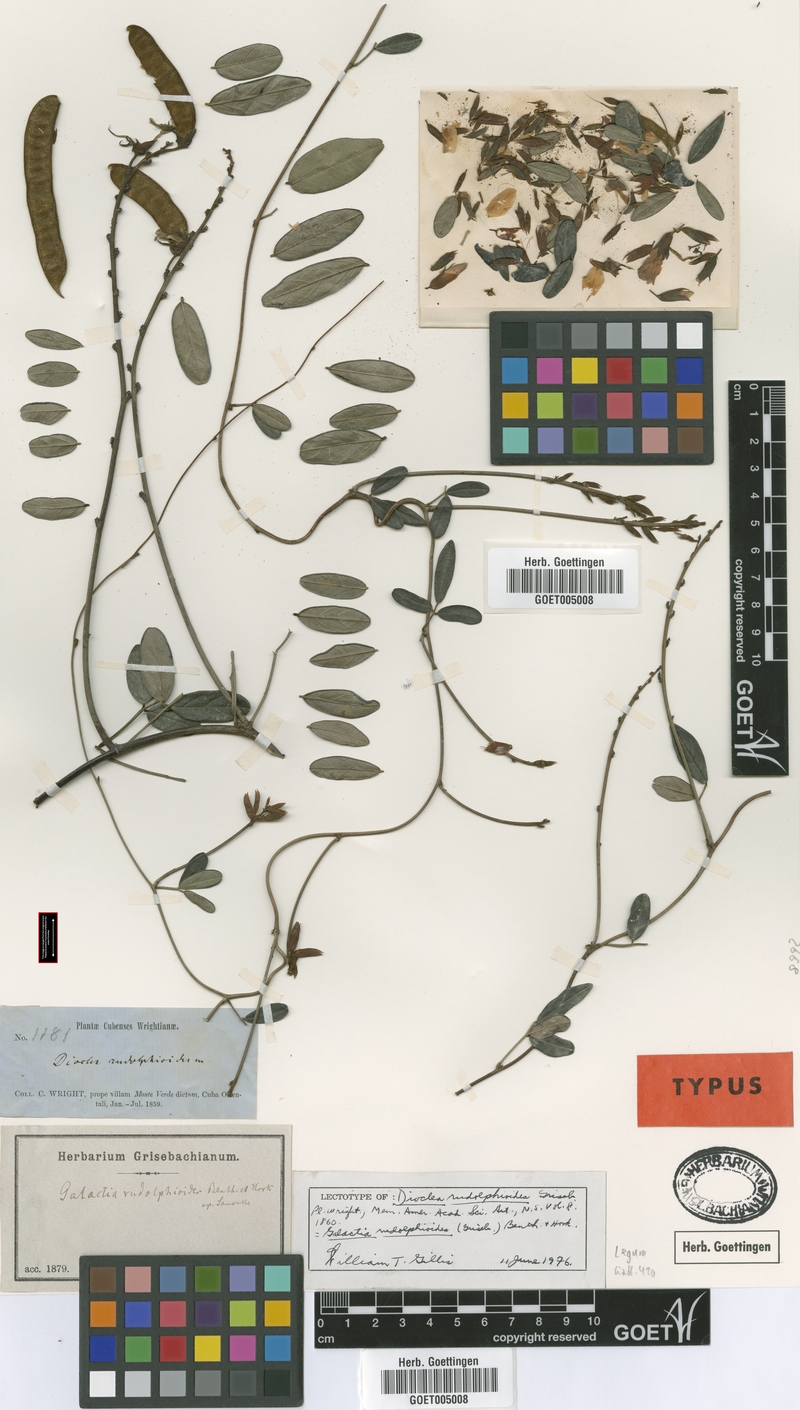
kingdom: Plantae
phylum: Tracheophyta
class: Magnoliopsida
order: Fabales
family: Fabaceae
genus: Rhodopis
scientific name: Rhodopis rudolphioides
